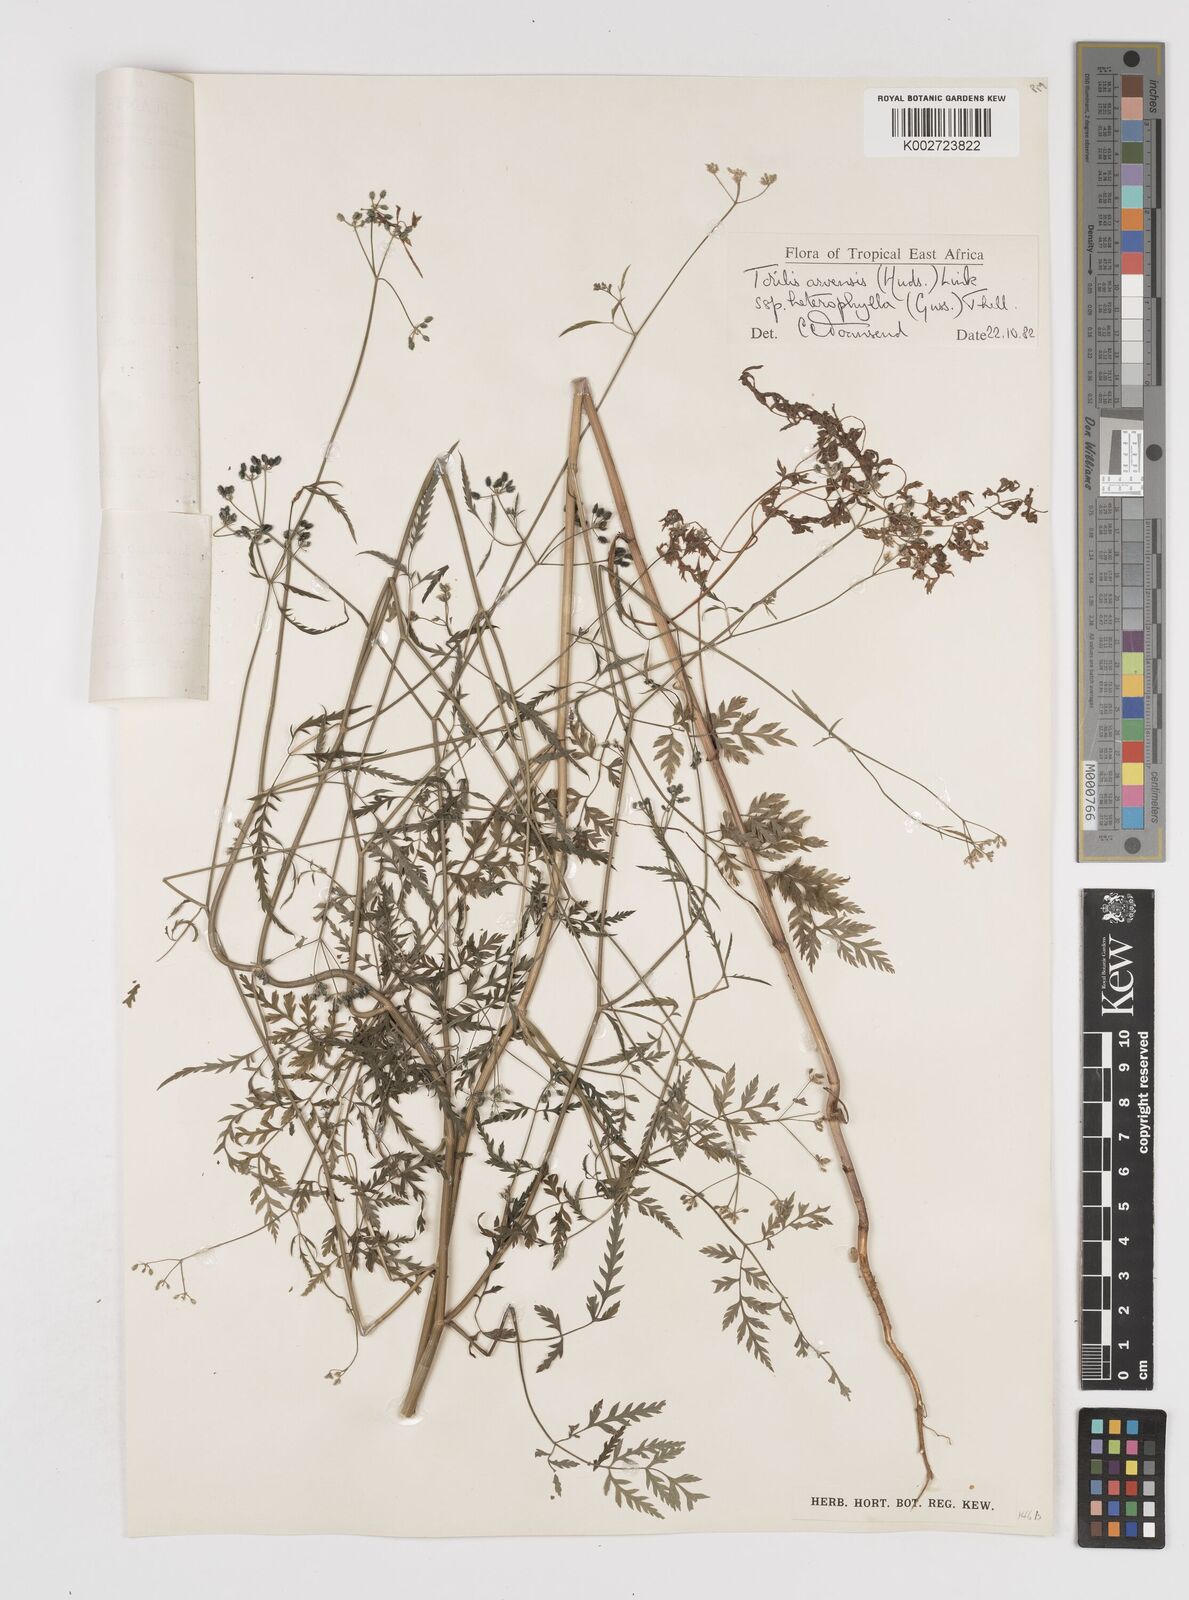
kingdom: Plantae
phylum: Tracheophyta
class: Magnoliopsida
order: Apiales
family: Apiaceae
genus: Torilis
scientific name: Torilis arvensis
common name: Spreading hedge-parsley
